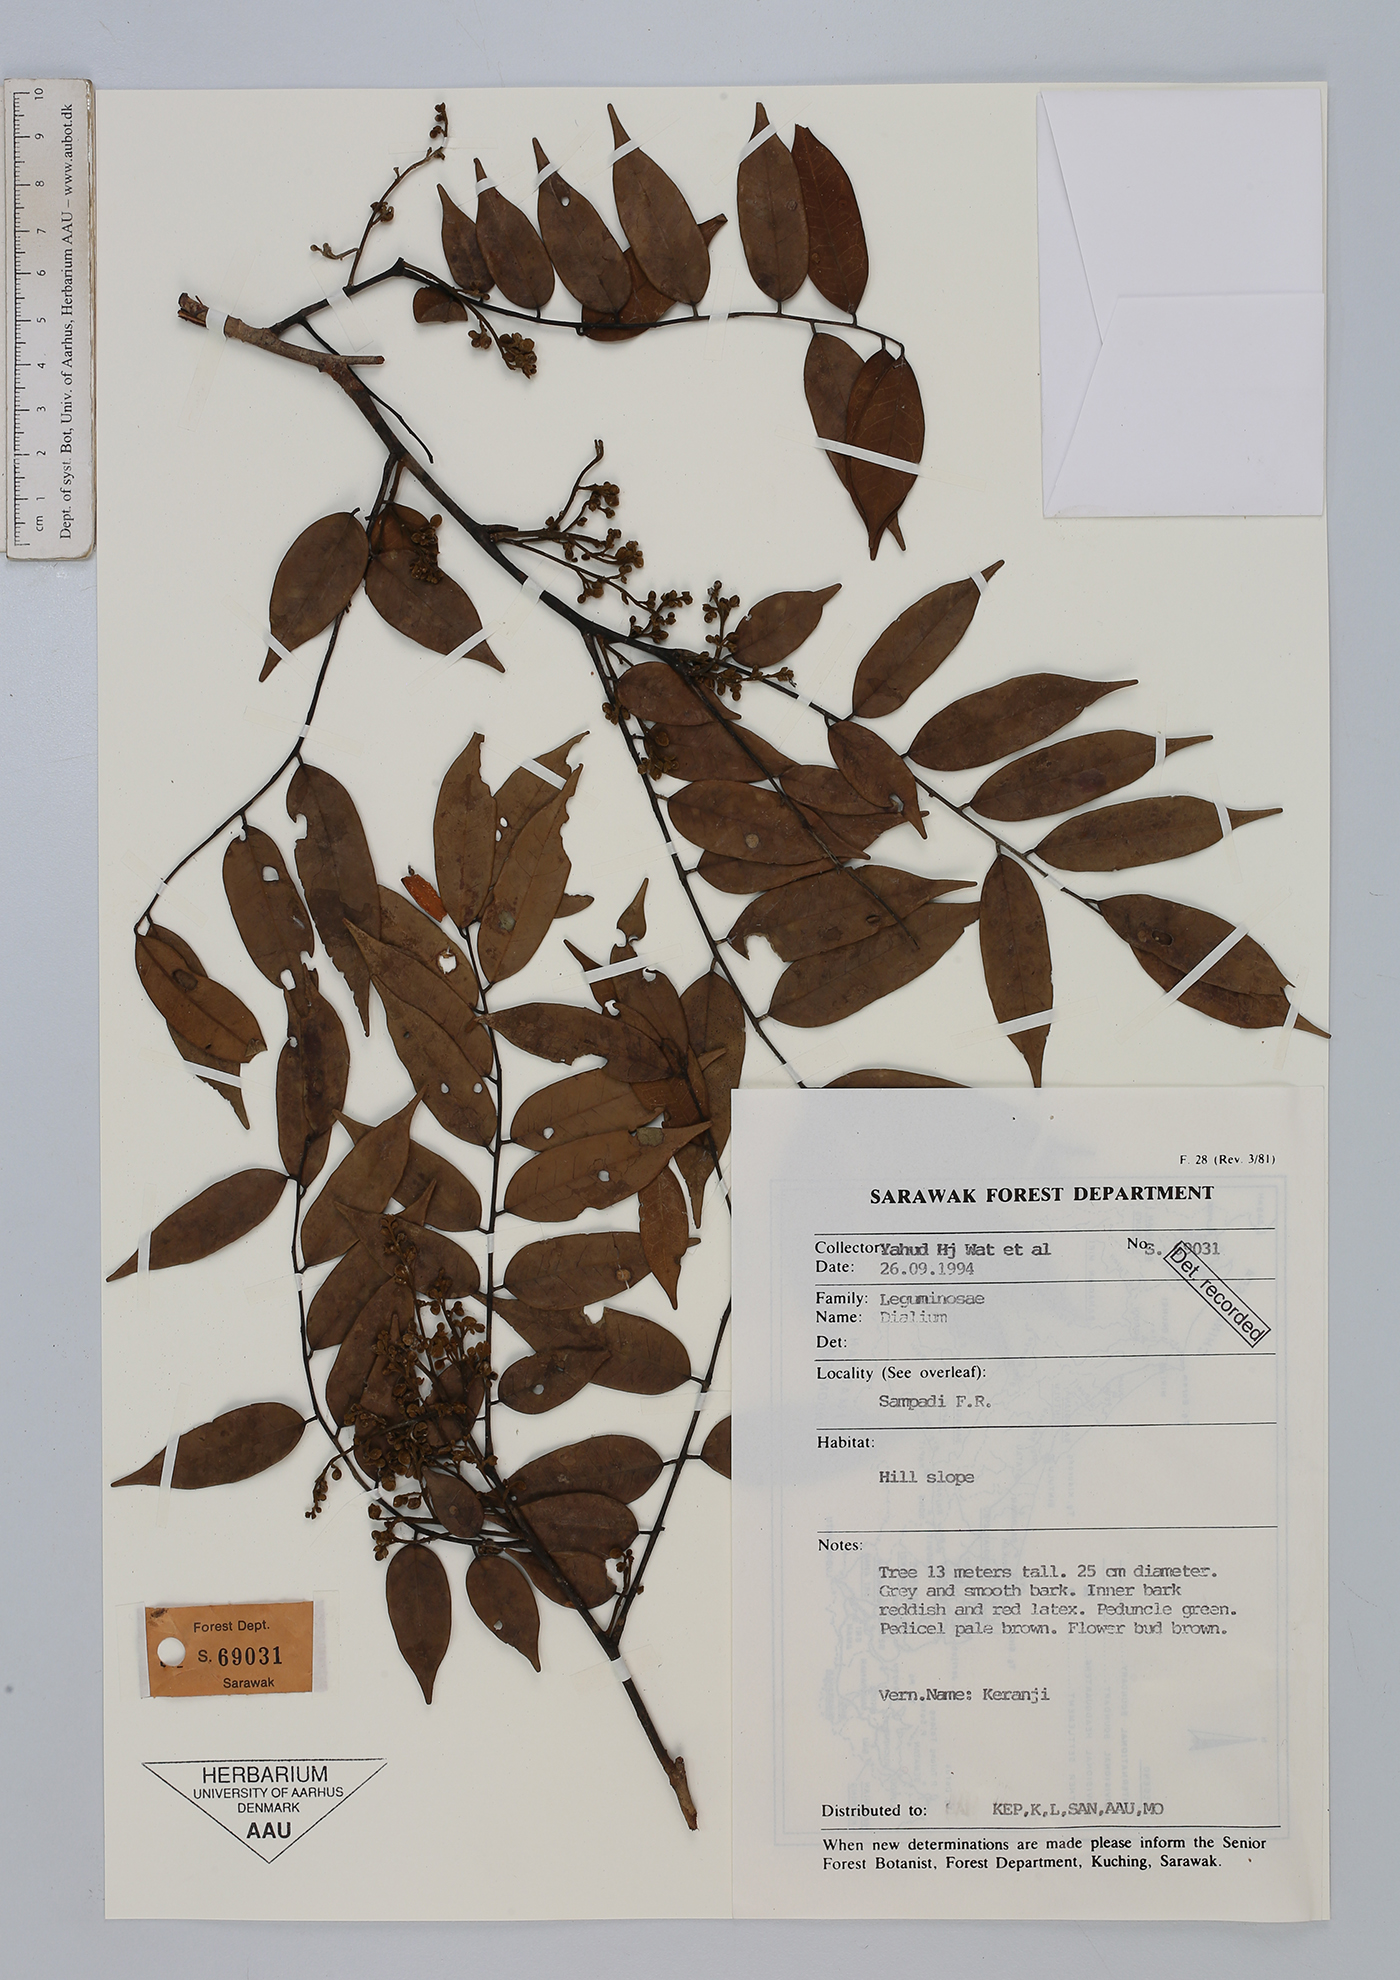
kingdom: Plantae
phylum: Tracheophyta
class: Magnoliopsida
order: Fabales
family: Fabaceae
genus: Dialium
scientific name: Dialium
